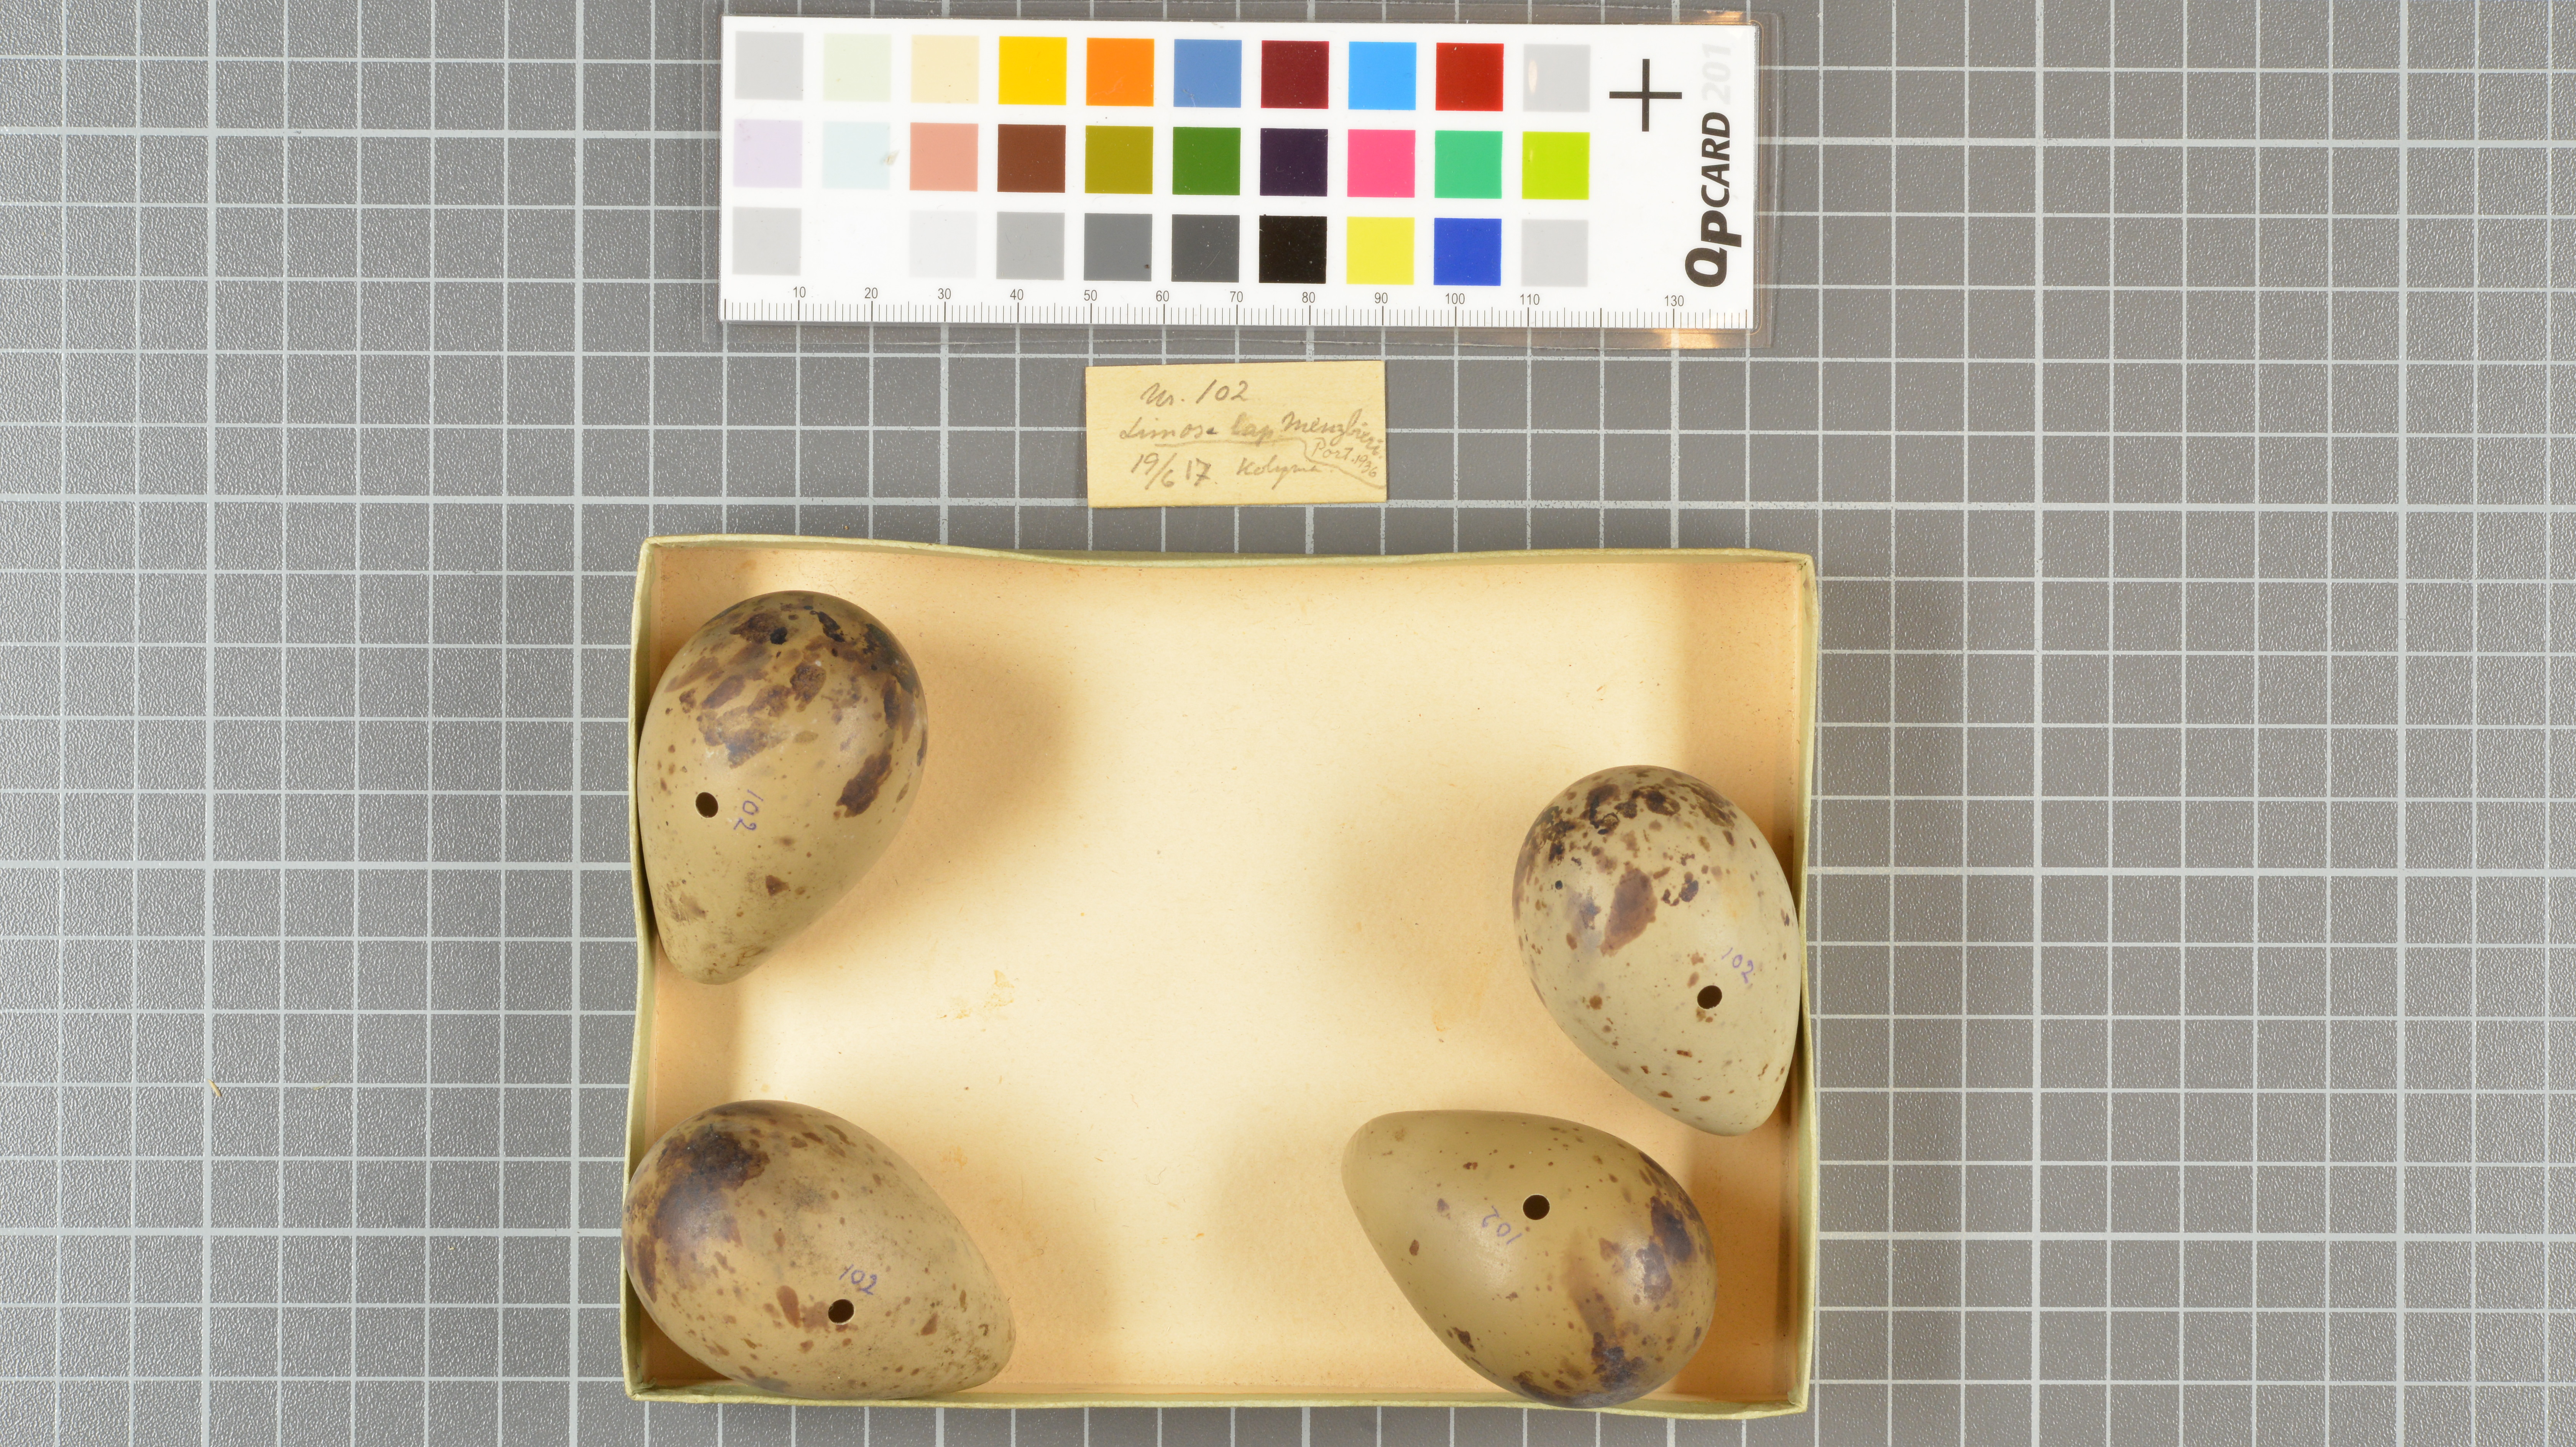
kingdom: Animalia
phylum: Chordata
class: Aves
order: Charadriiformes
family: Scolopacidae
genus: Limosa
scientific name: Limosa lapponica
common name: Bar-tailed godwit
